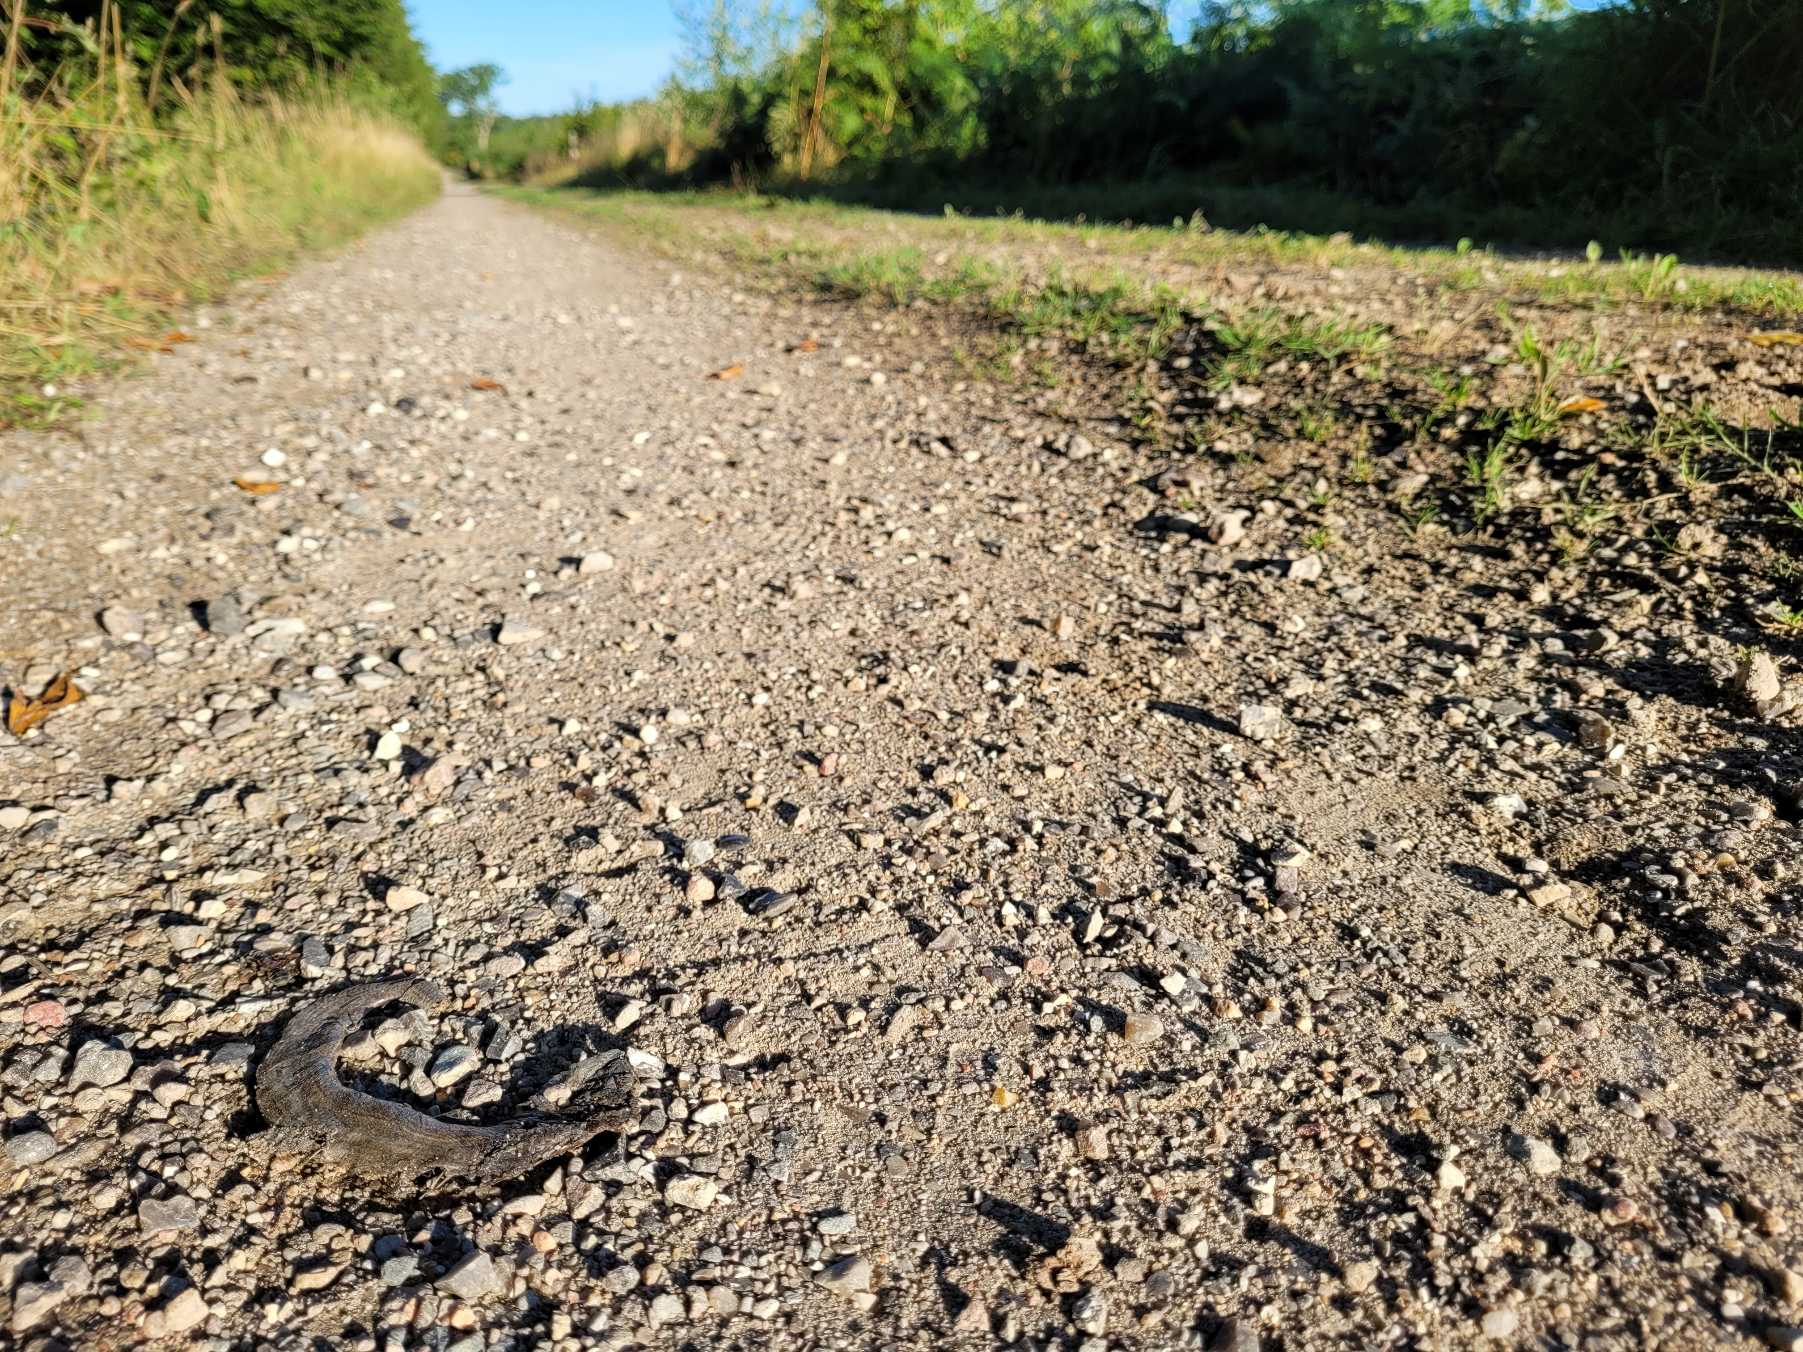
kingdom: Animalia
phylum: Chordata
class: Squamata
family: Anguidae
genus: Anguis
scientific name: Anguis fragilis
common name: Stålorm
